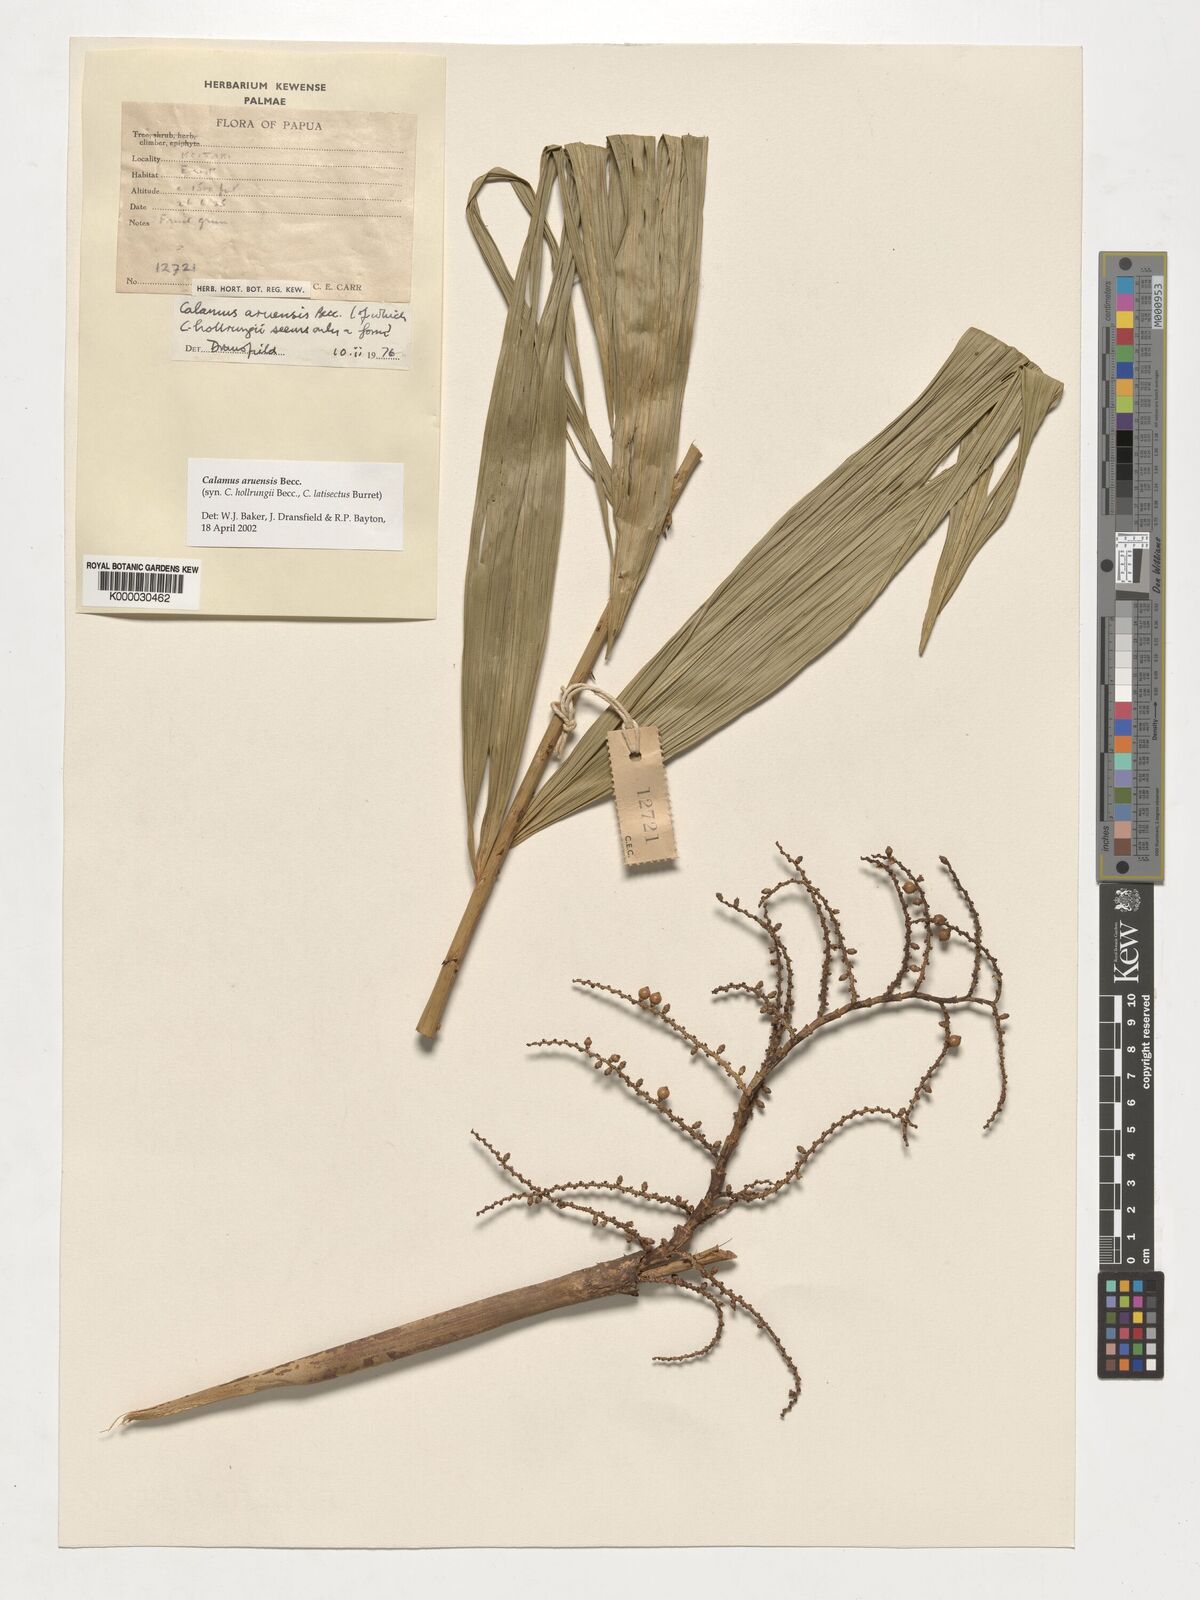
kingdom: Plantae
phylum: Tracheophyta
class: Liliopsida
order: Arecales
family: Arecaceae
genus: Calamus
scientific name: Calamus aruensis
